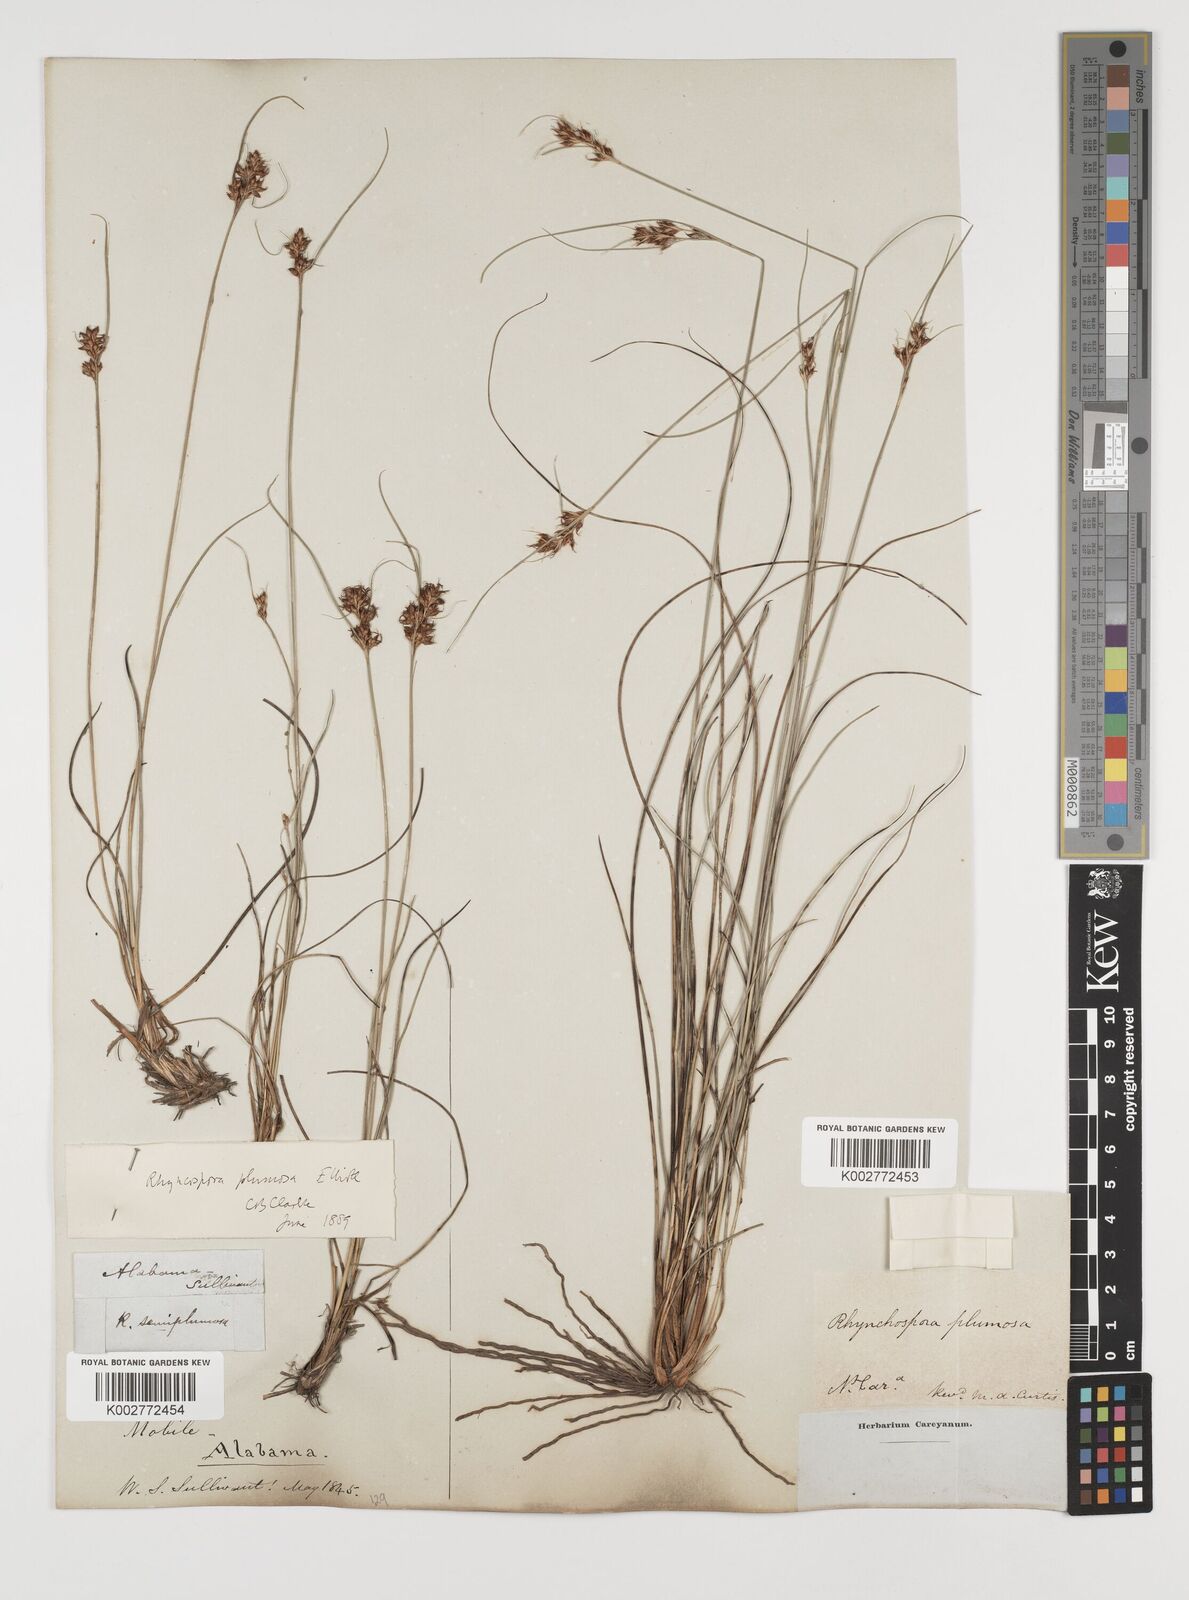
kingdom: Plantae
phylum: Tracheophyta
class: Liliopsida
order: Poales
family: Cyperaceae
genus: Rhynchospora
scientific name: Rhynchospora plumosa
